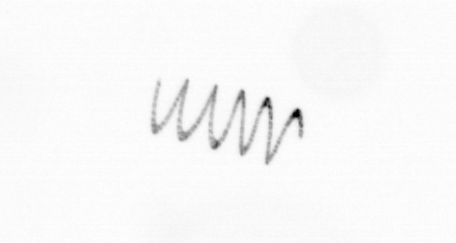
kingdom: Chromista
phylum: Ochrophyta
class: Bacillariophyceae
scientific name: Bacillariophyceae
